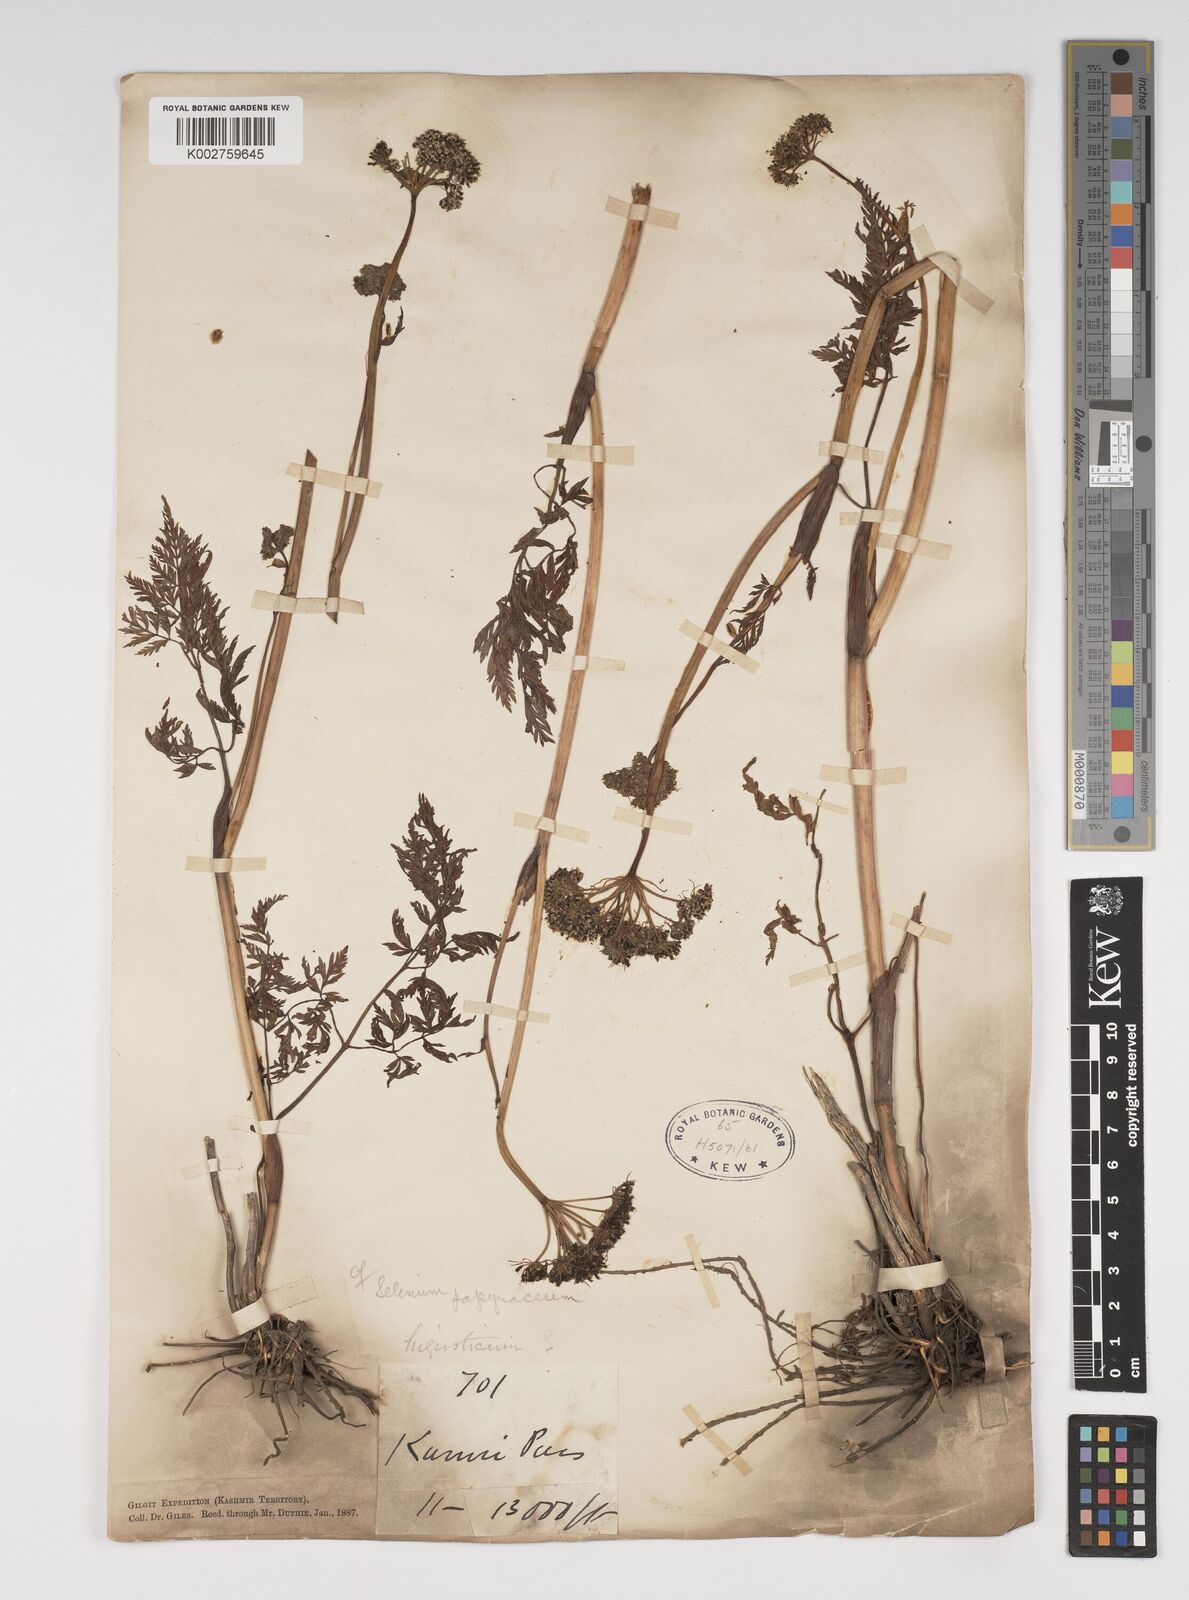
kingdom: Plantae
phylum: Tracheophyta
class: Magnoliopsida
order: Apiales
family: Apiaceae
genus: Conioselinum
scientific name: Conioselinum tataricum
